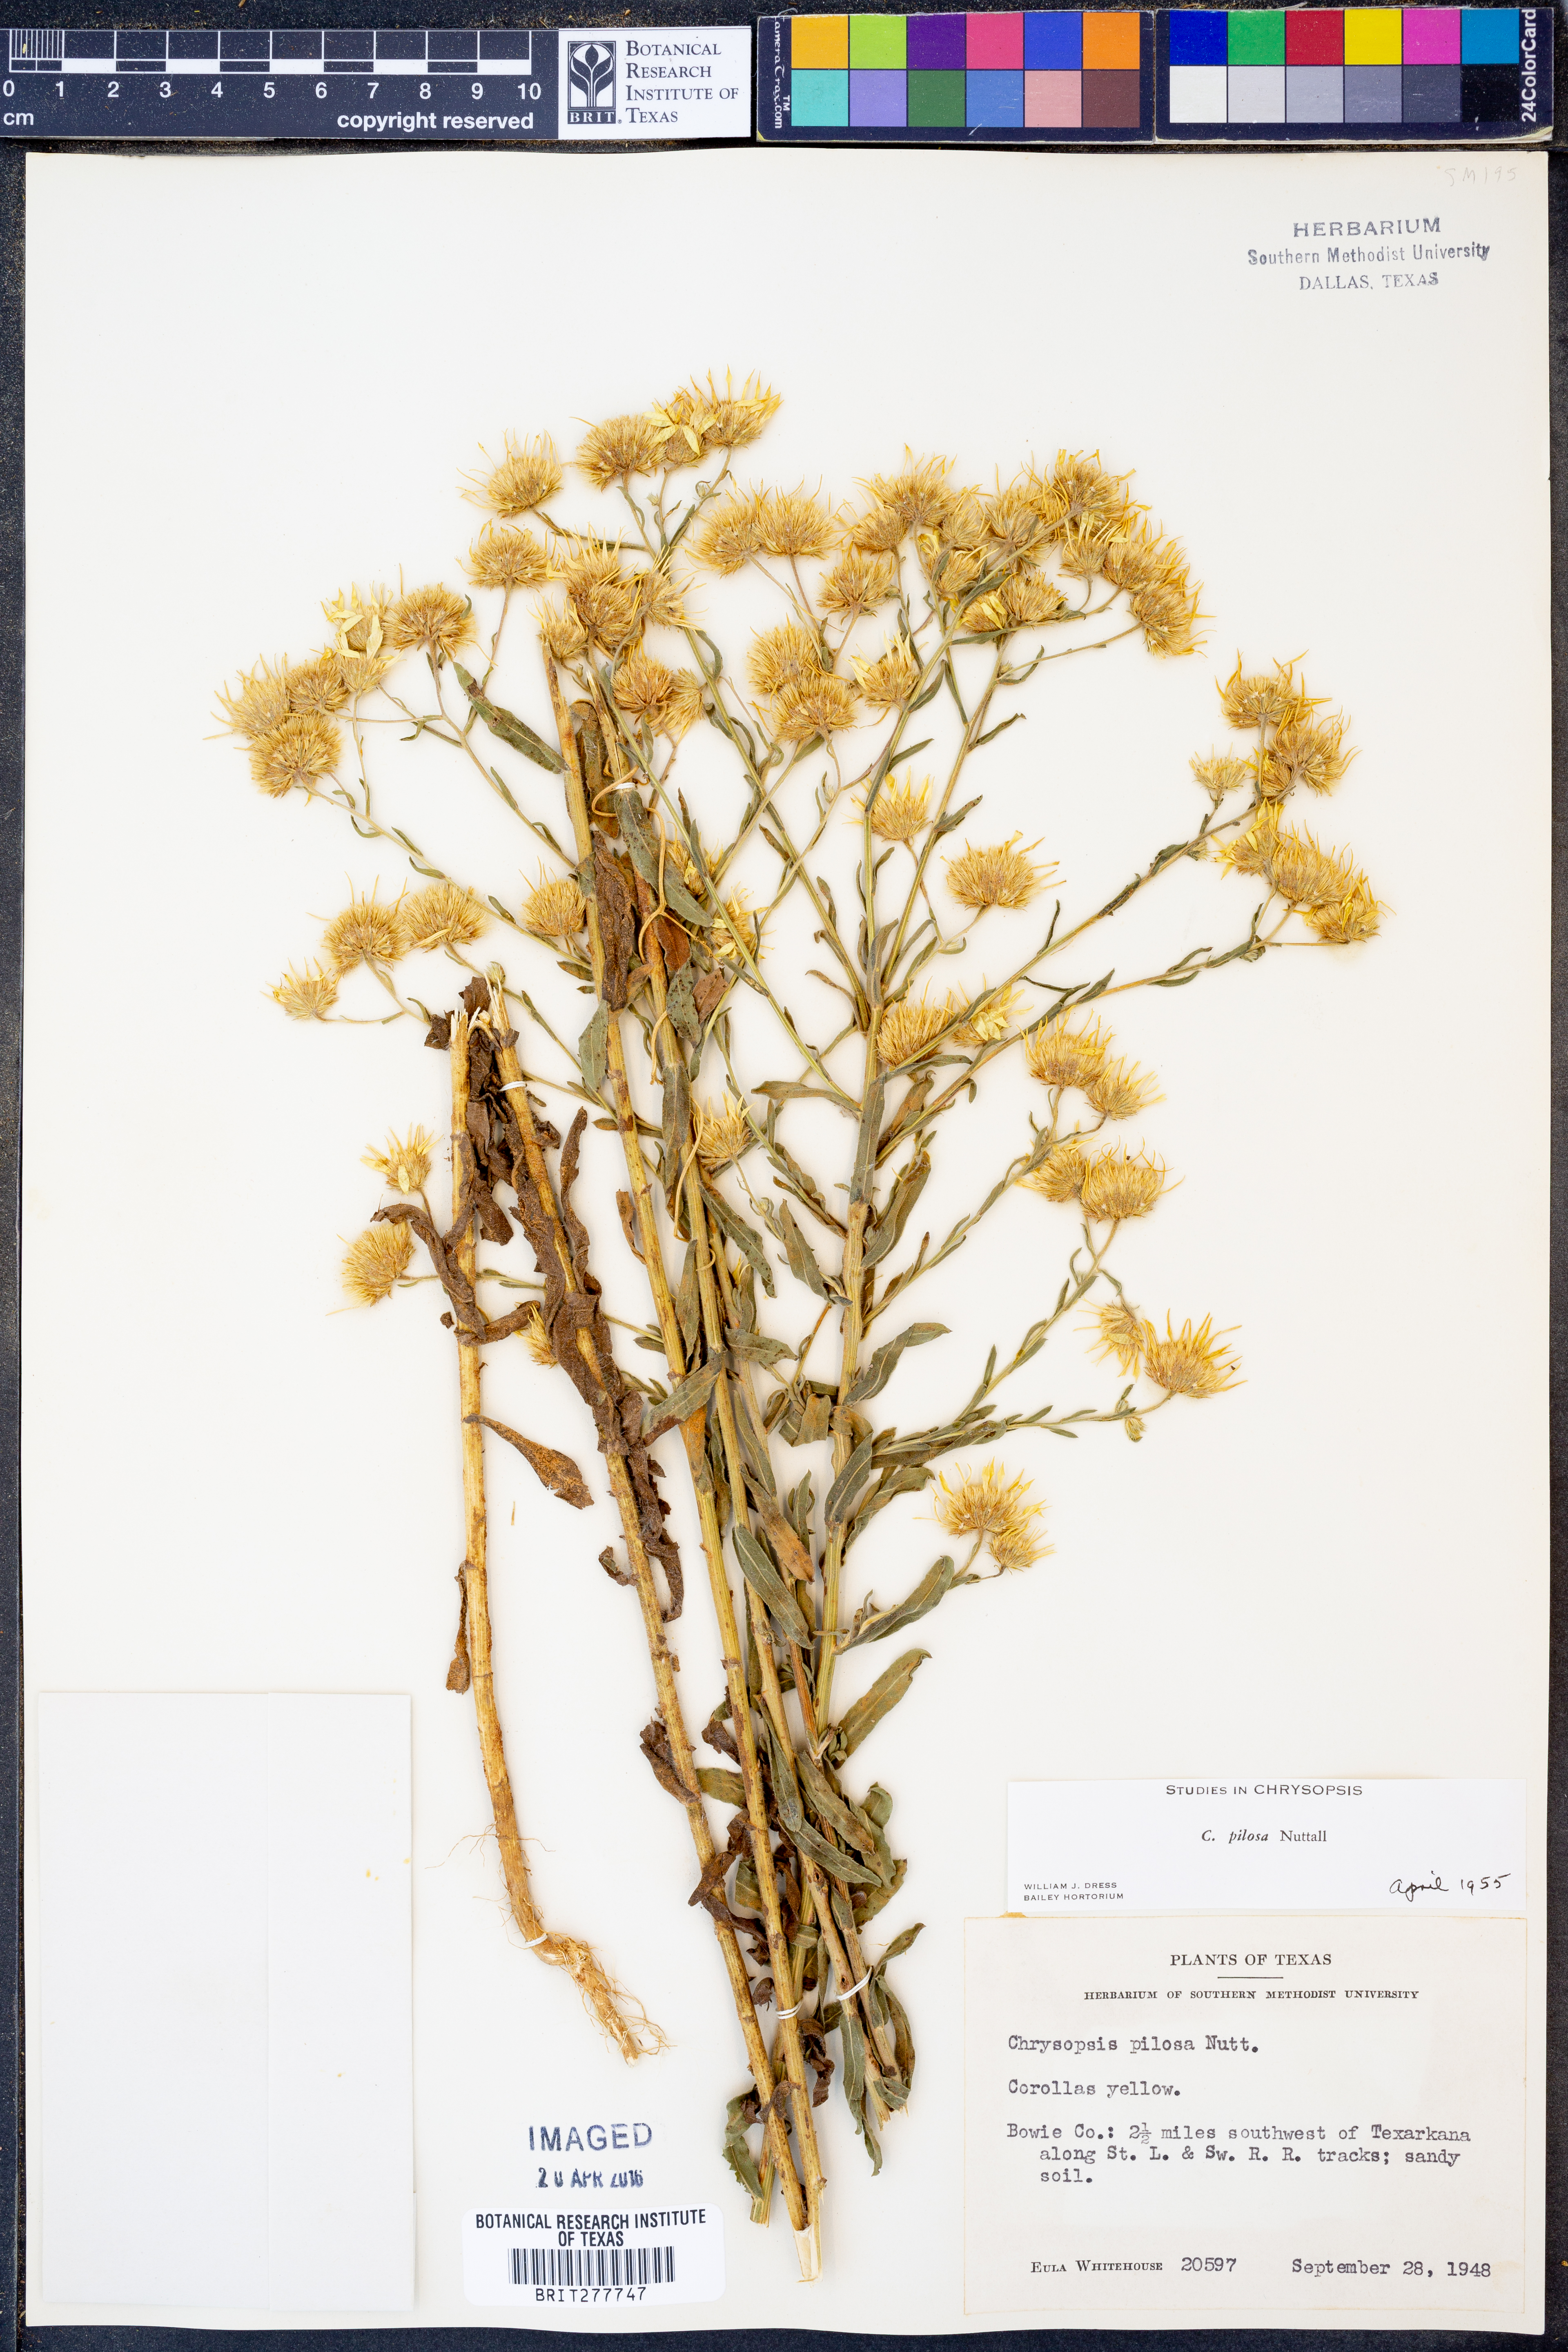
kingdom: Plantae
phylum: Tracheophyta
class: Magnoliopsida
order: Asterales
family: Asteraceae
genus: Bradburia
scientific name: Bradburia pilosa
